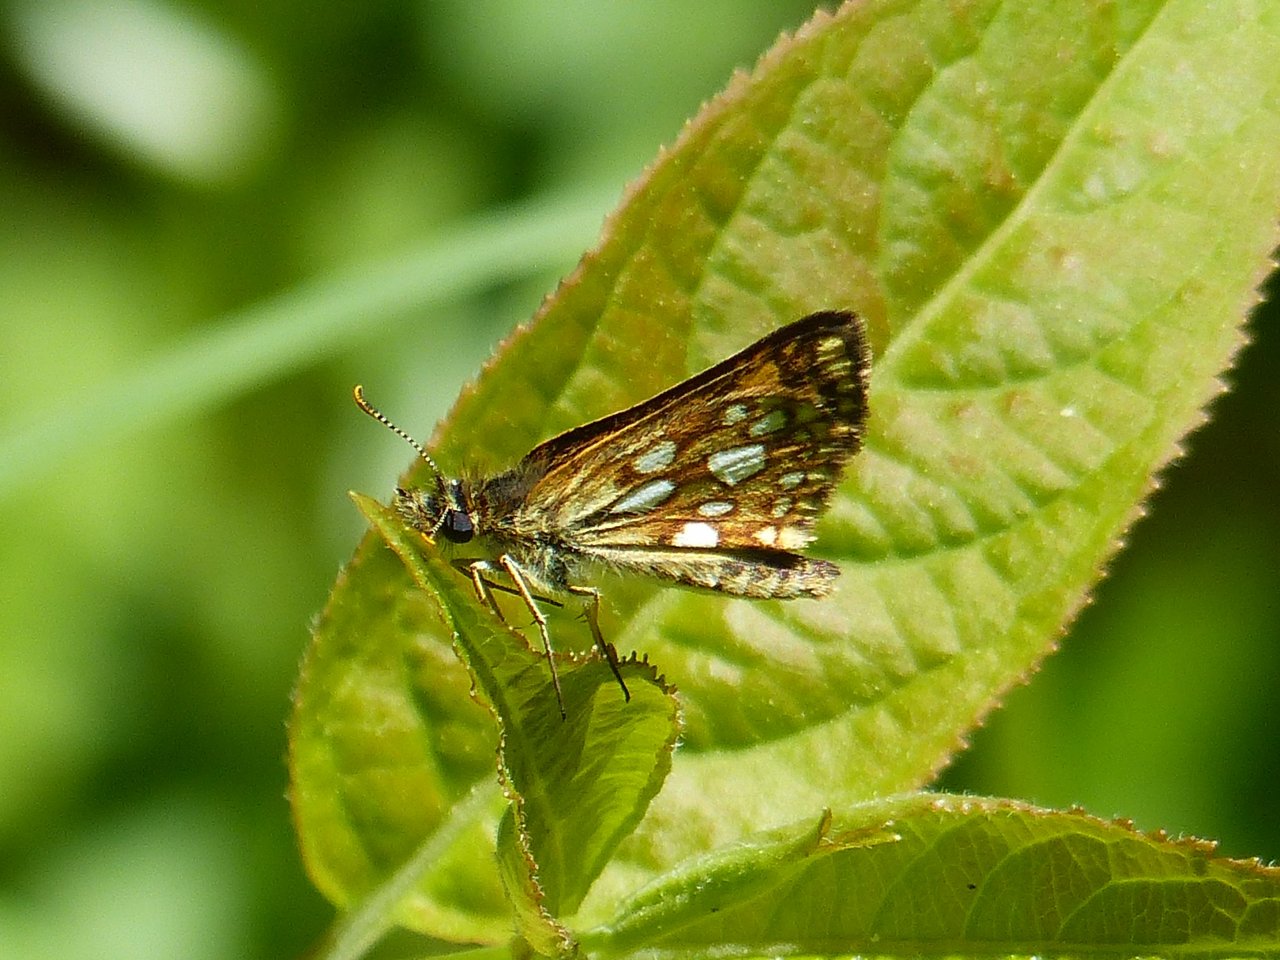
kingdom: Animalia
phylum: Arthropoda
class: Insecta
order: Lepidoptera
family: Hesperiidae
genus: Carterocephalus
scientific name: Carterocephalus palaemon
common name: Chequered Skipper
